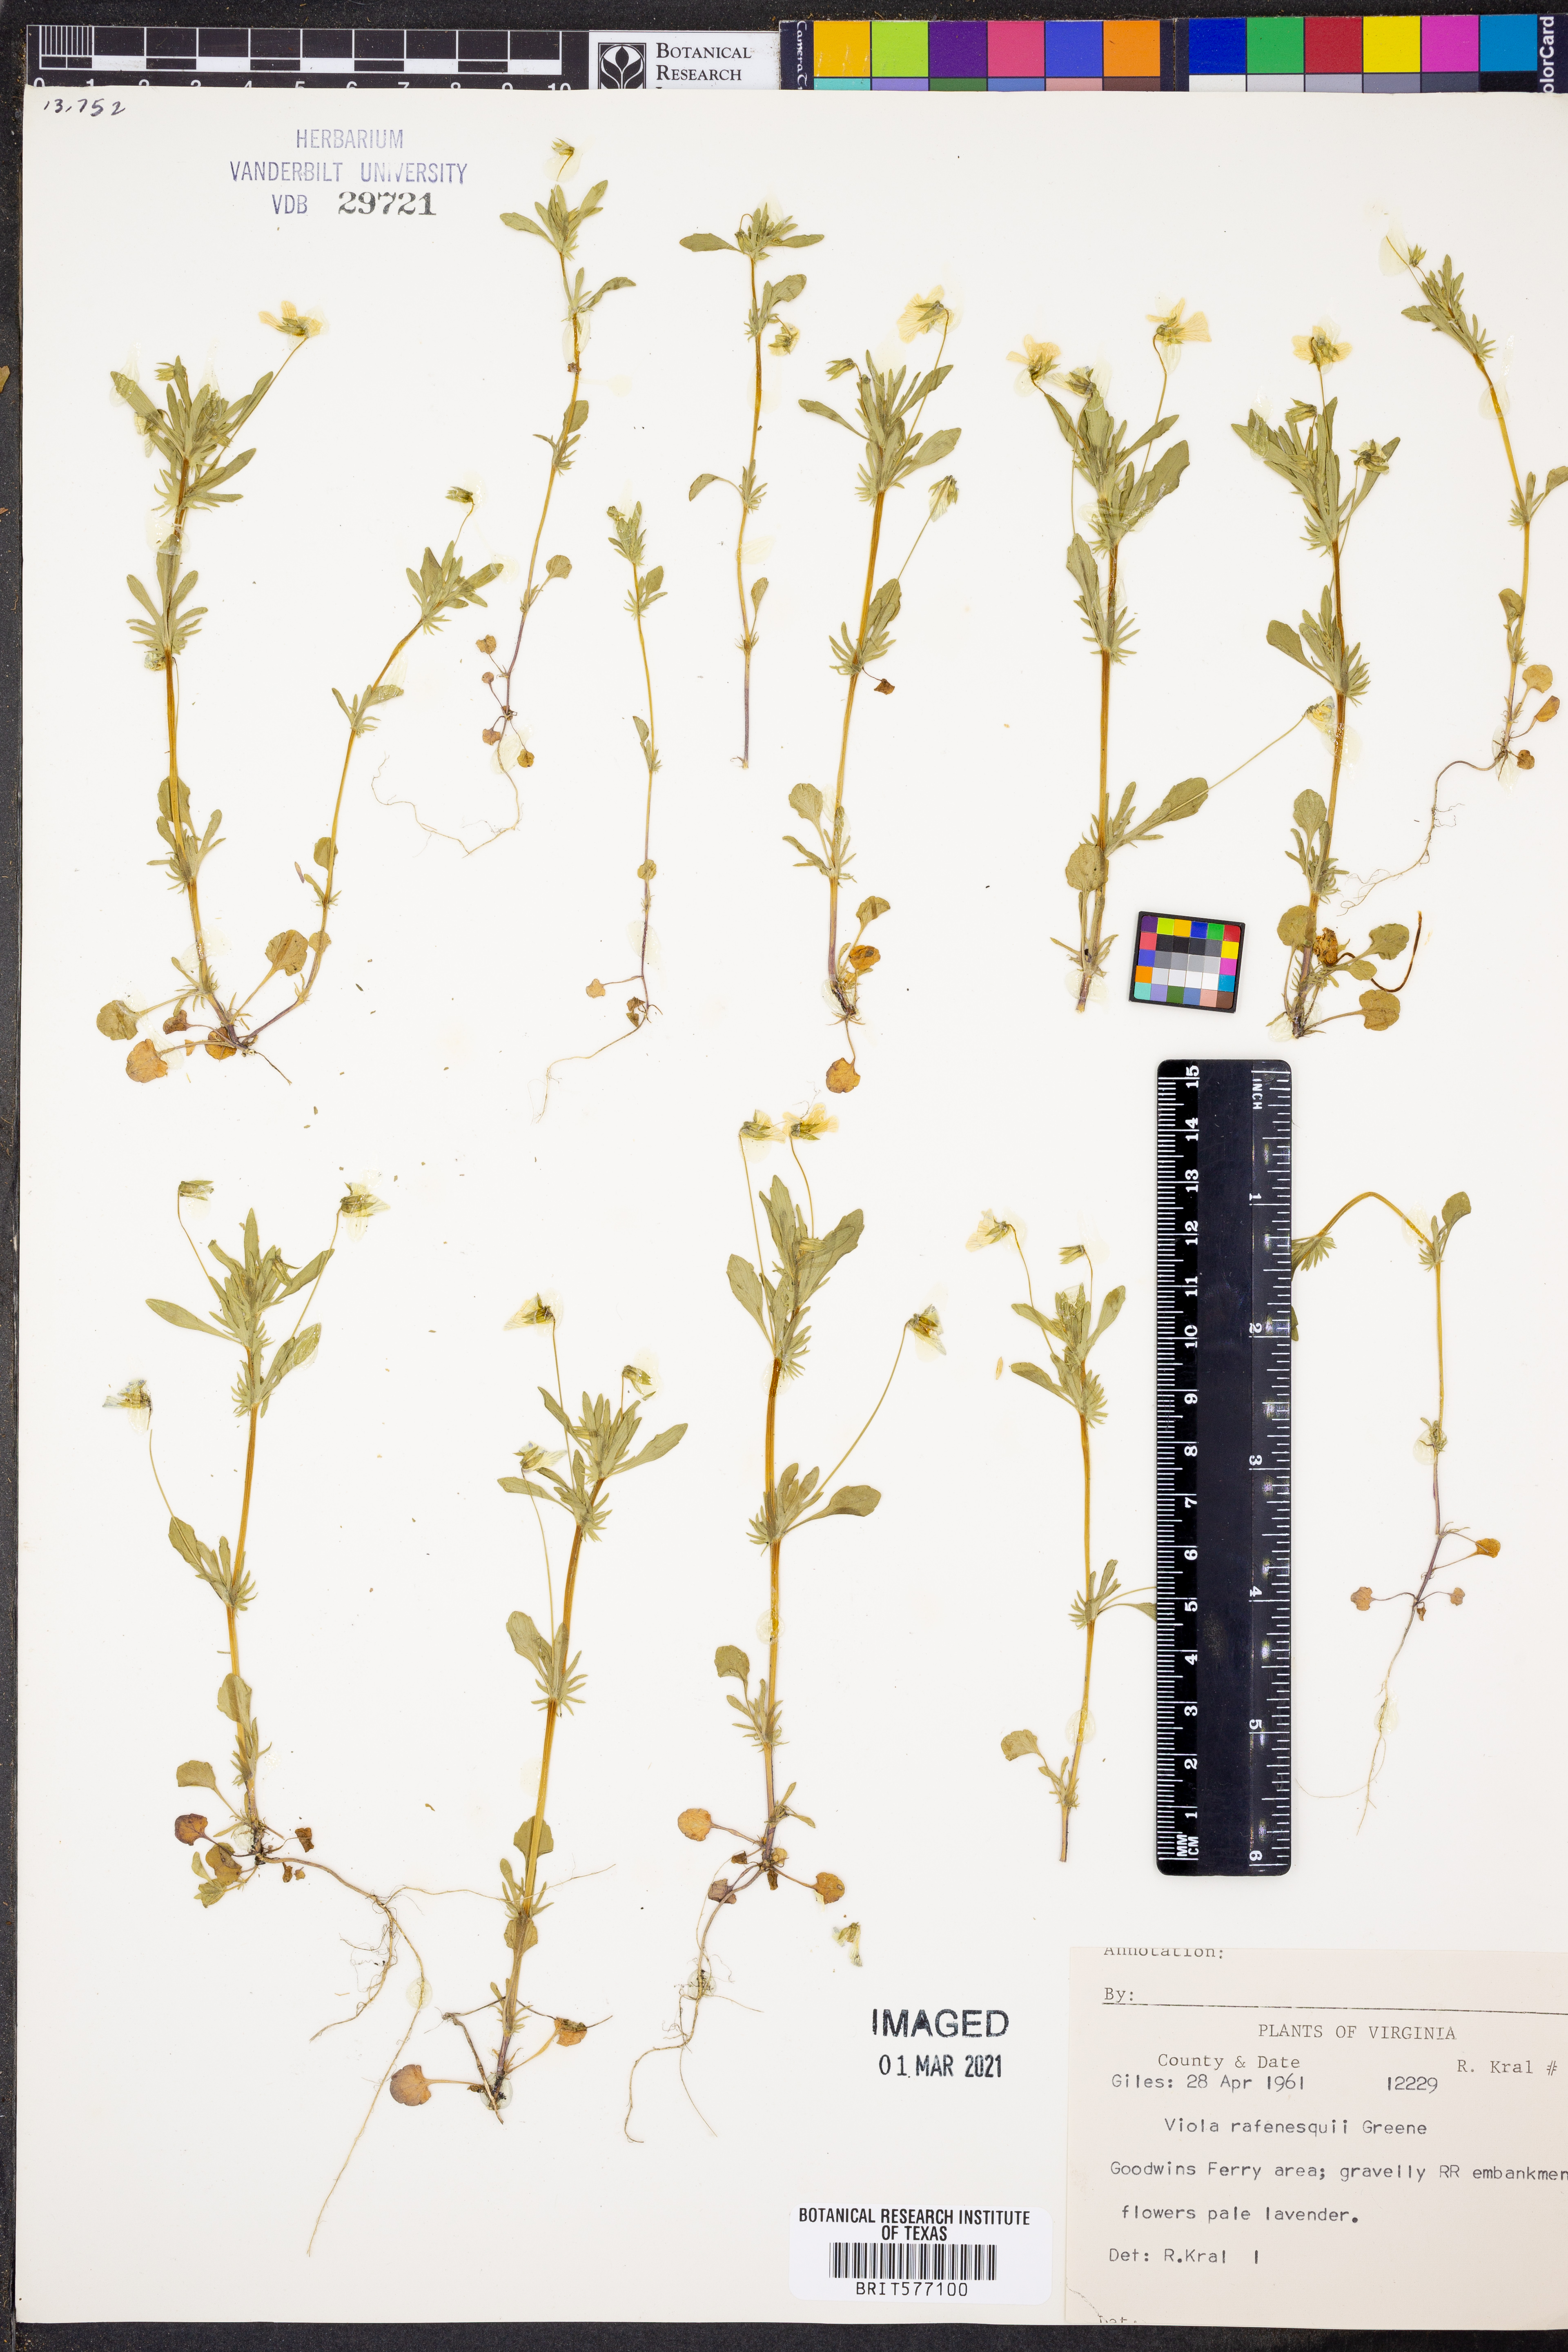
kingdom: Plantae
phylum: Tracheophyta
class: Magnoliopsida
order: Malpighiales
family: Violaceae
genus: Viola
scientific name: Viola rafinesquei
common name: American field pansy
